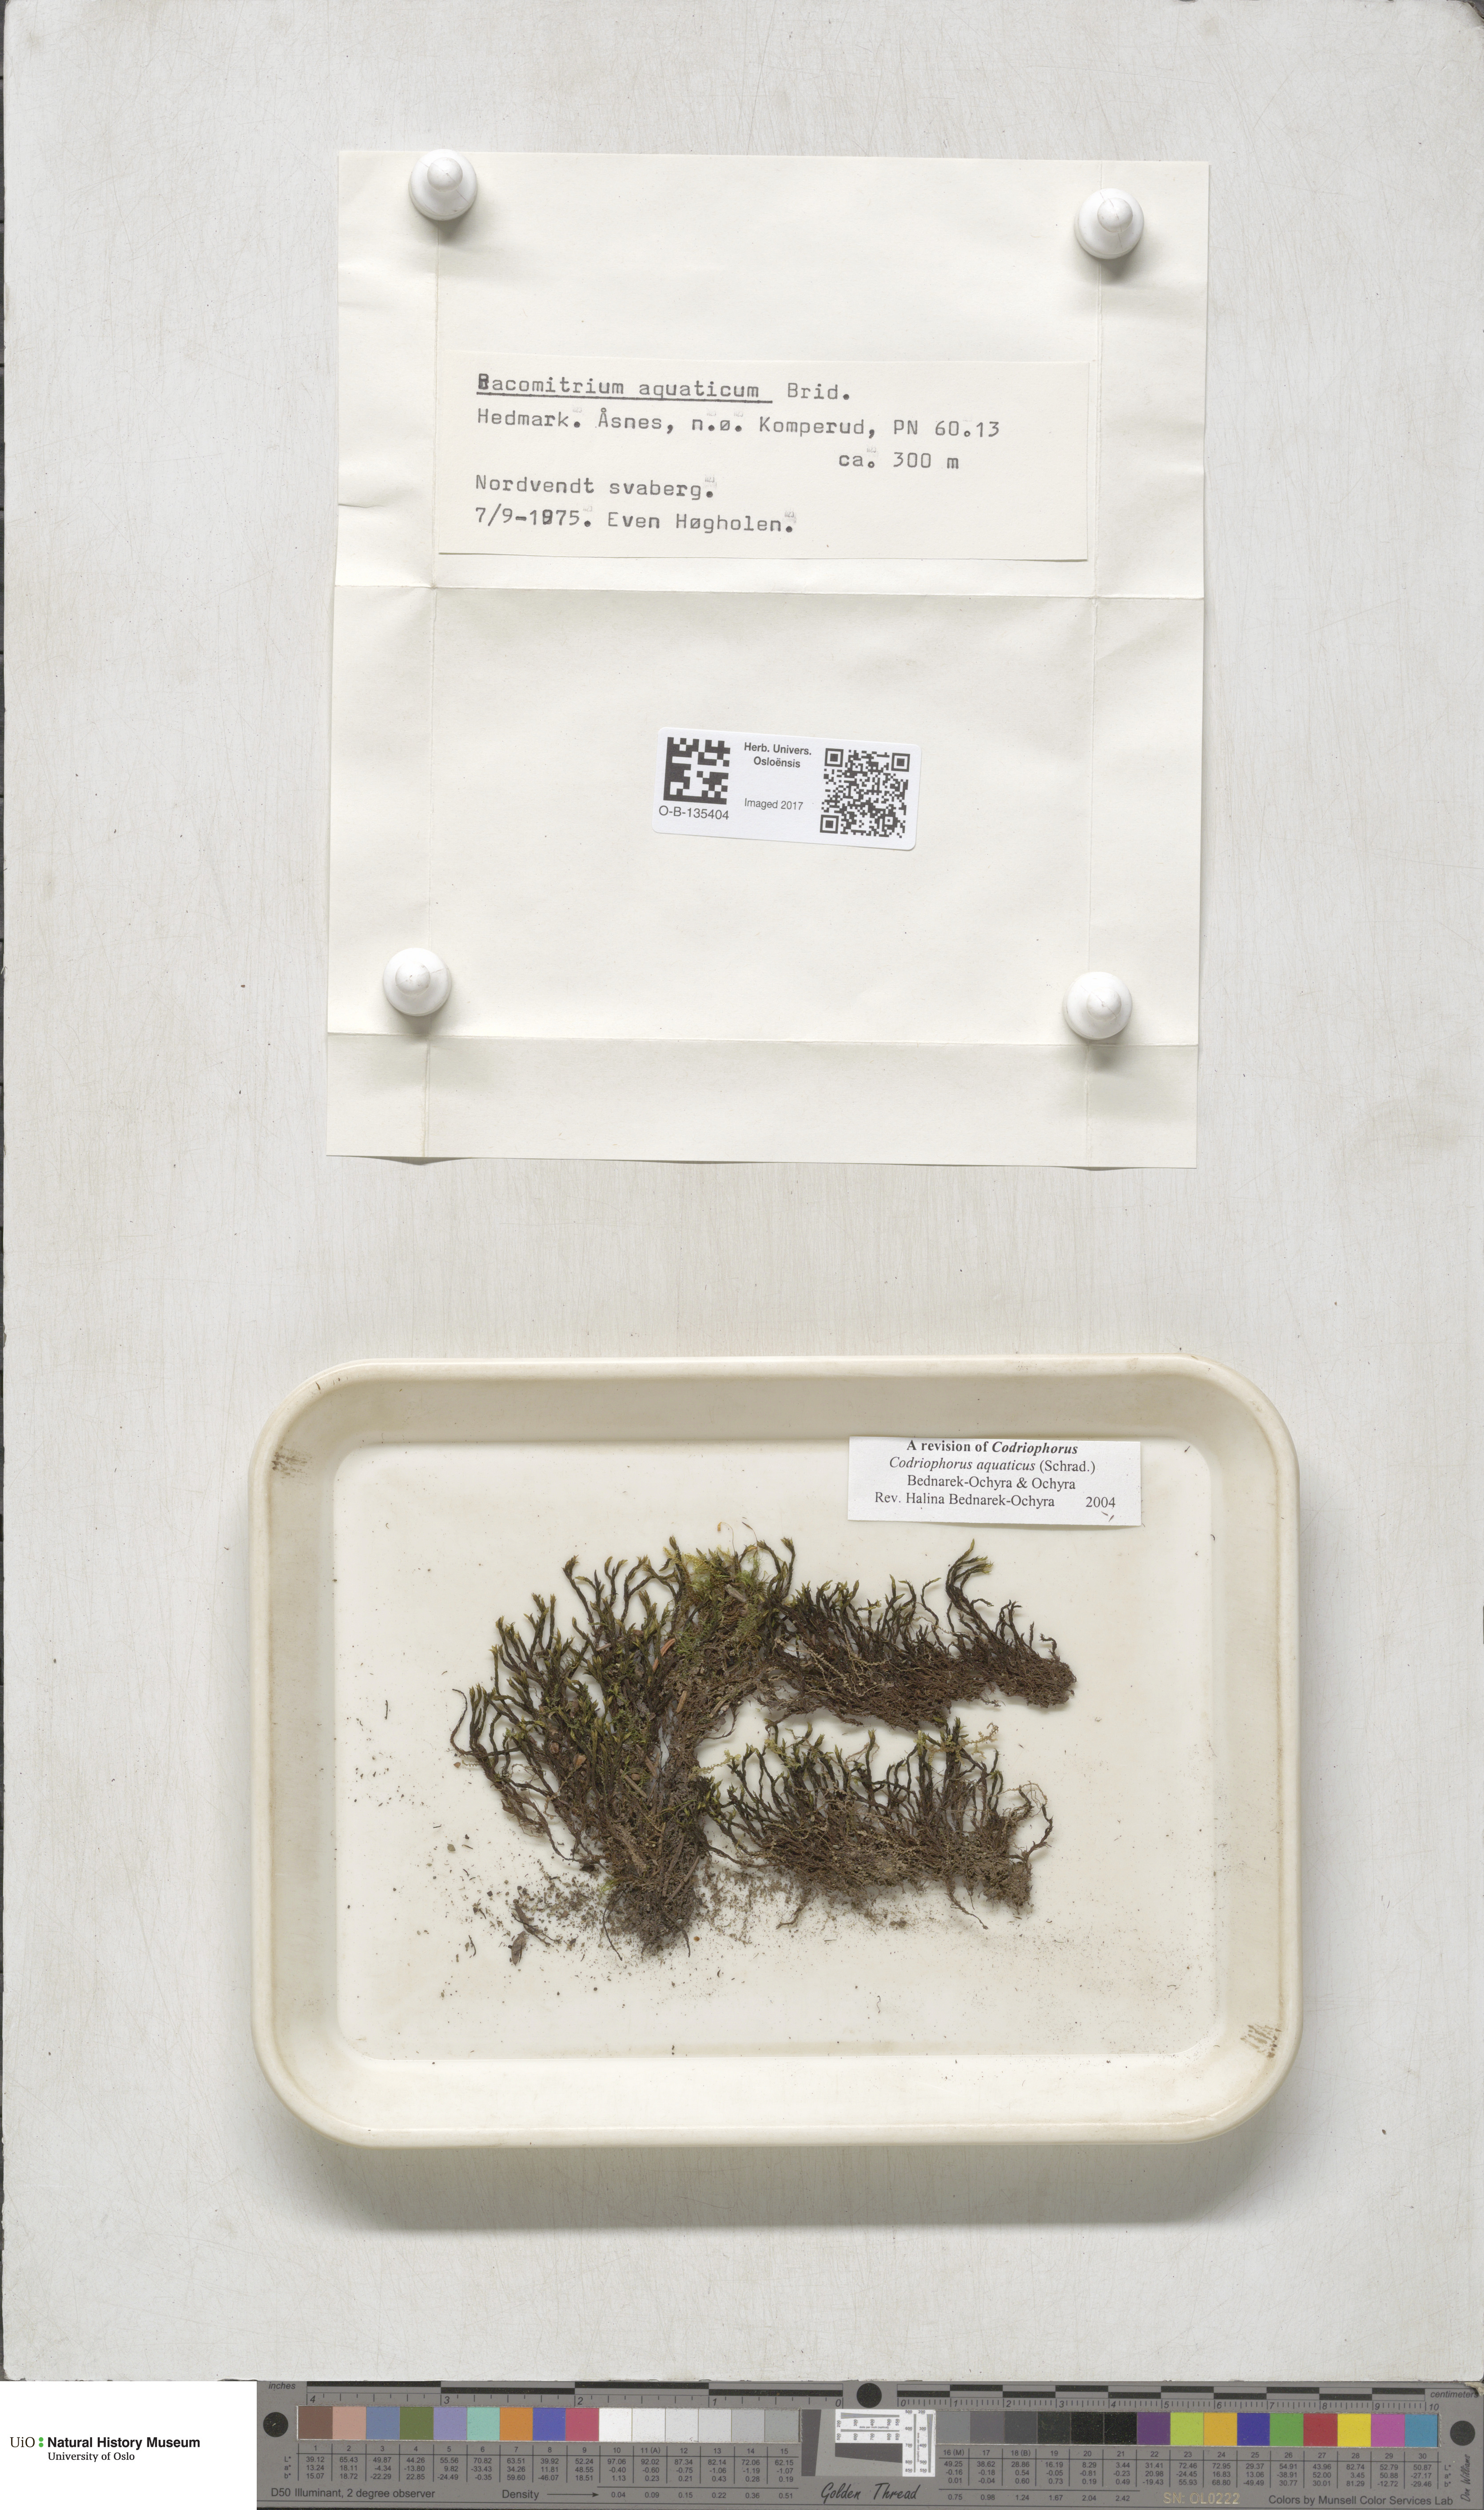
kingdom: Plantae
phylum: Bryophyta
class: Bryopsida
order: Grimmiales
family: Grimmiaceae
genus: Codriophorus
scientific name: Codriophorus aquaticus
